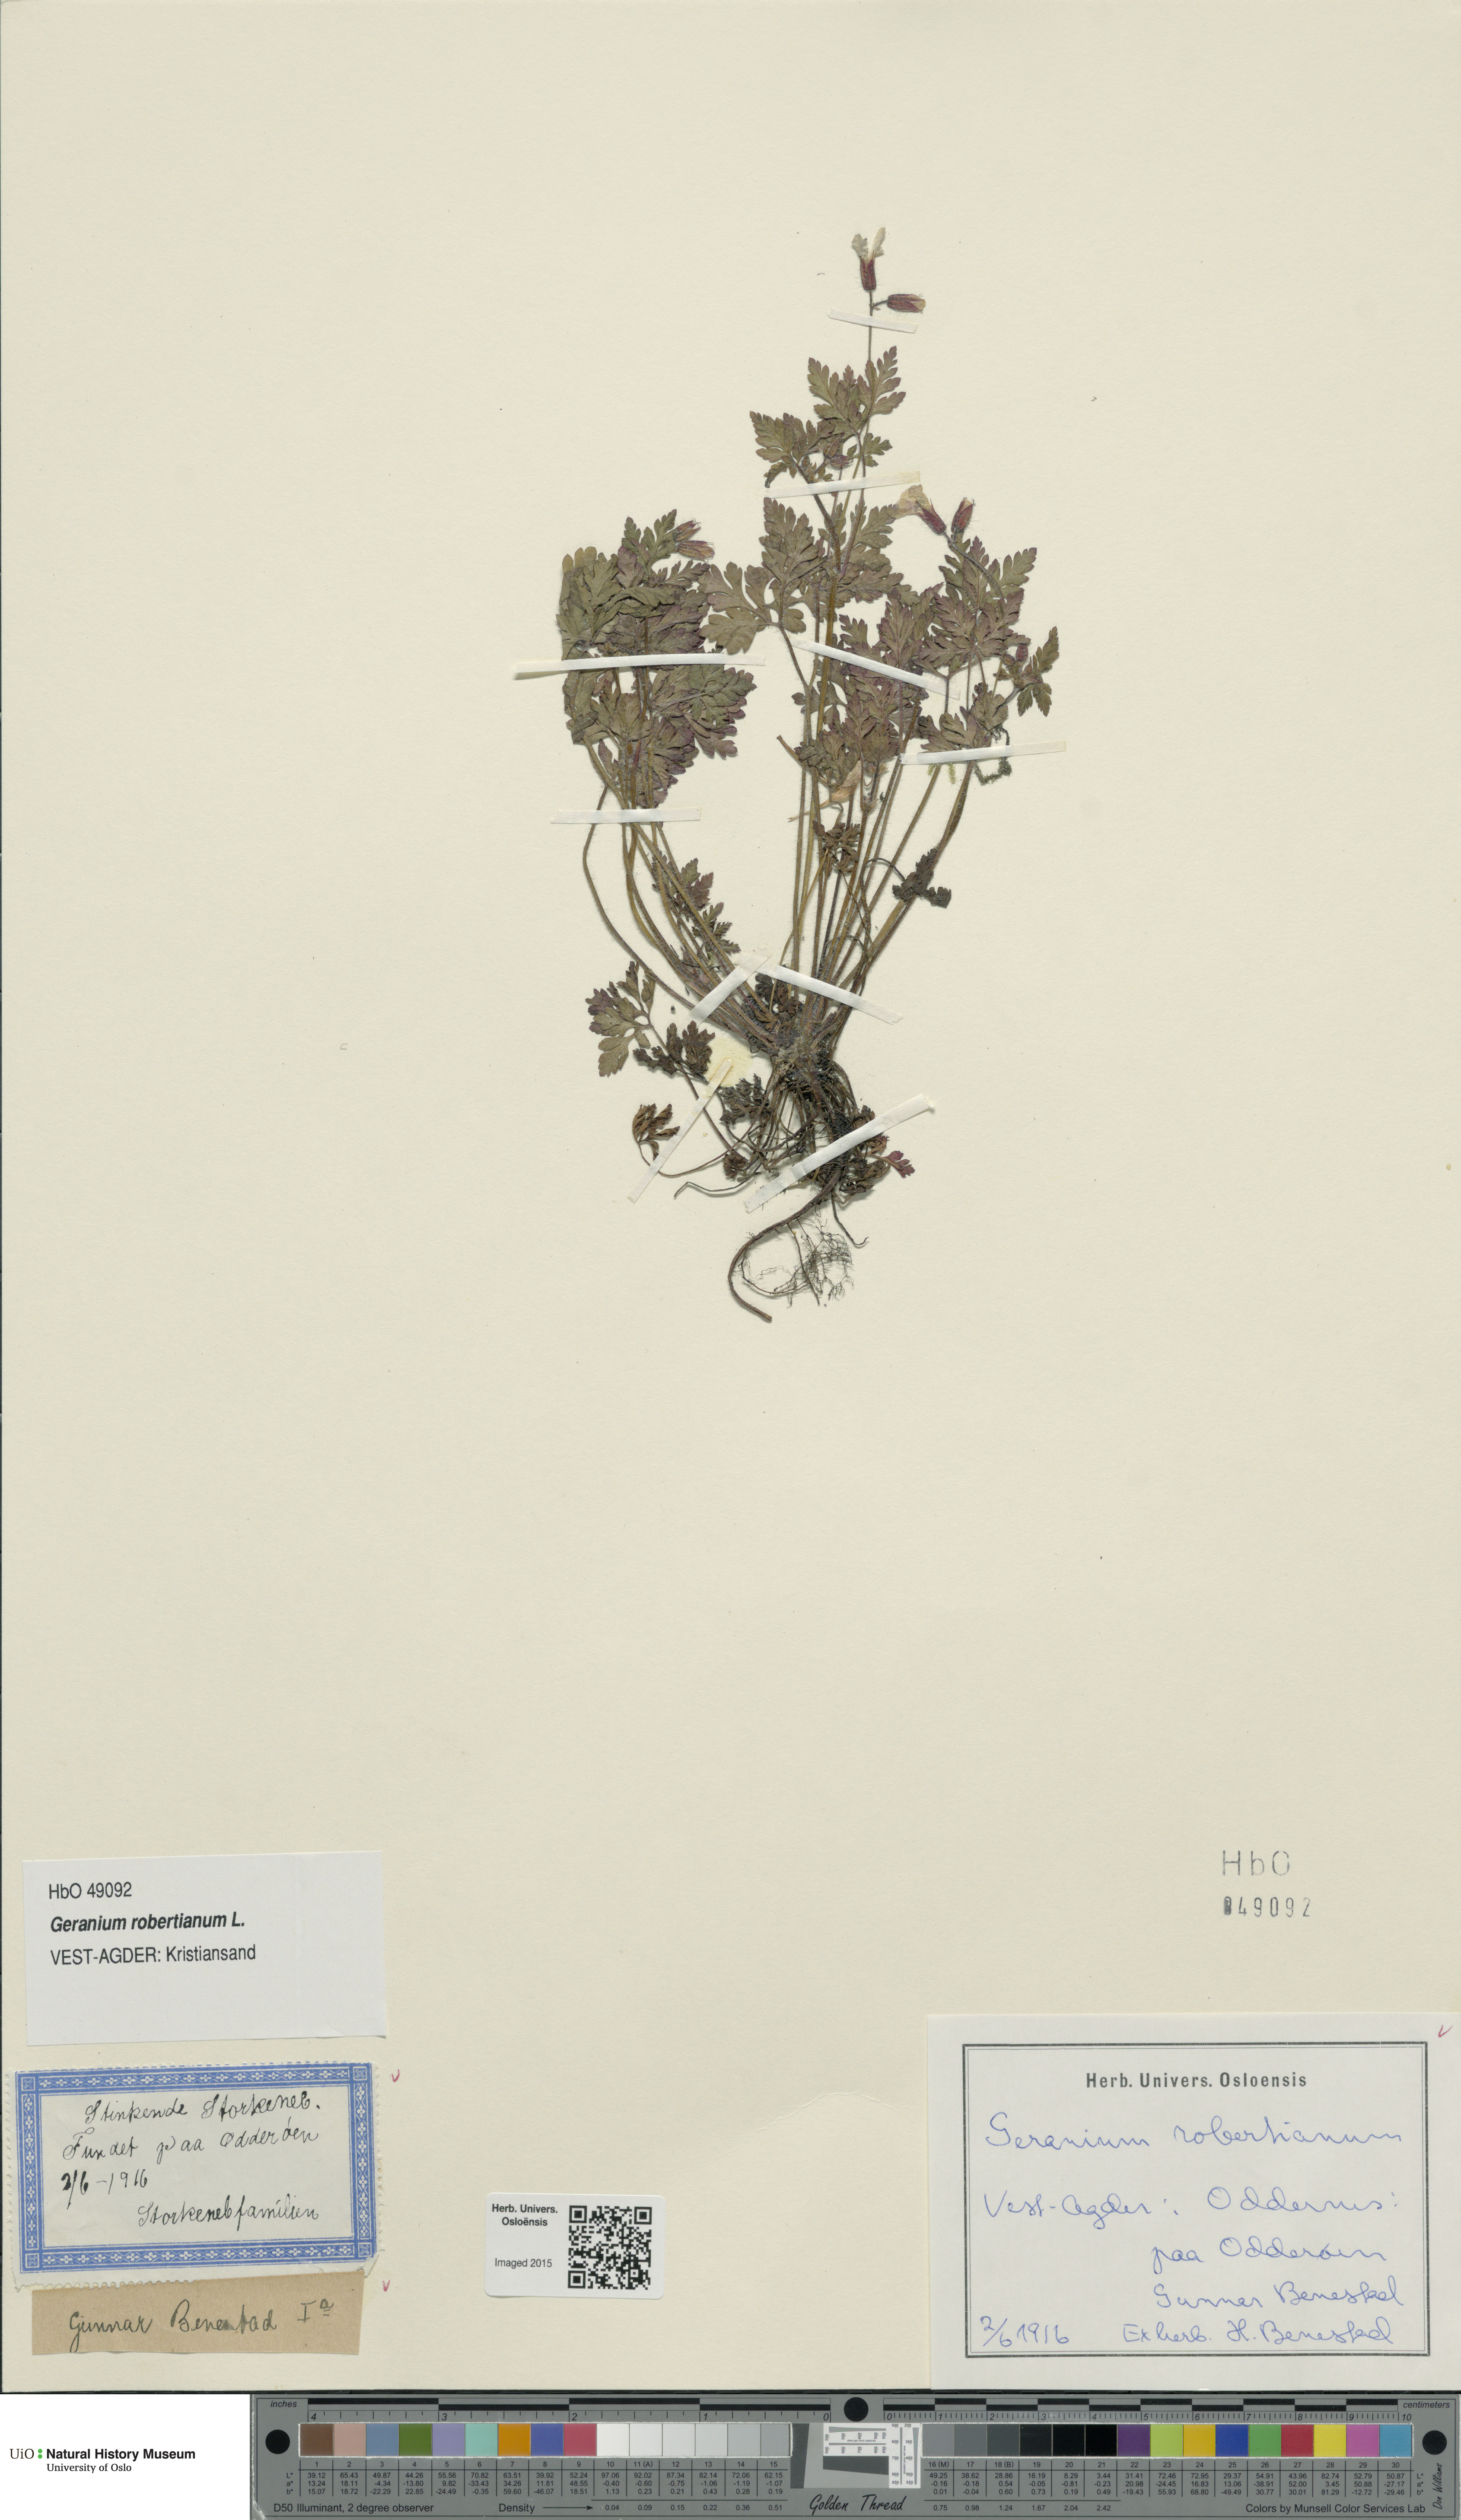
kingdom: Plantae
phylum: Tracheophyta
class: Magnoliopsida
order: Geraniales
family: Geraniaceae
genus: Geranium
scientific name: Geranium robertianum
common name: Herb-robert
